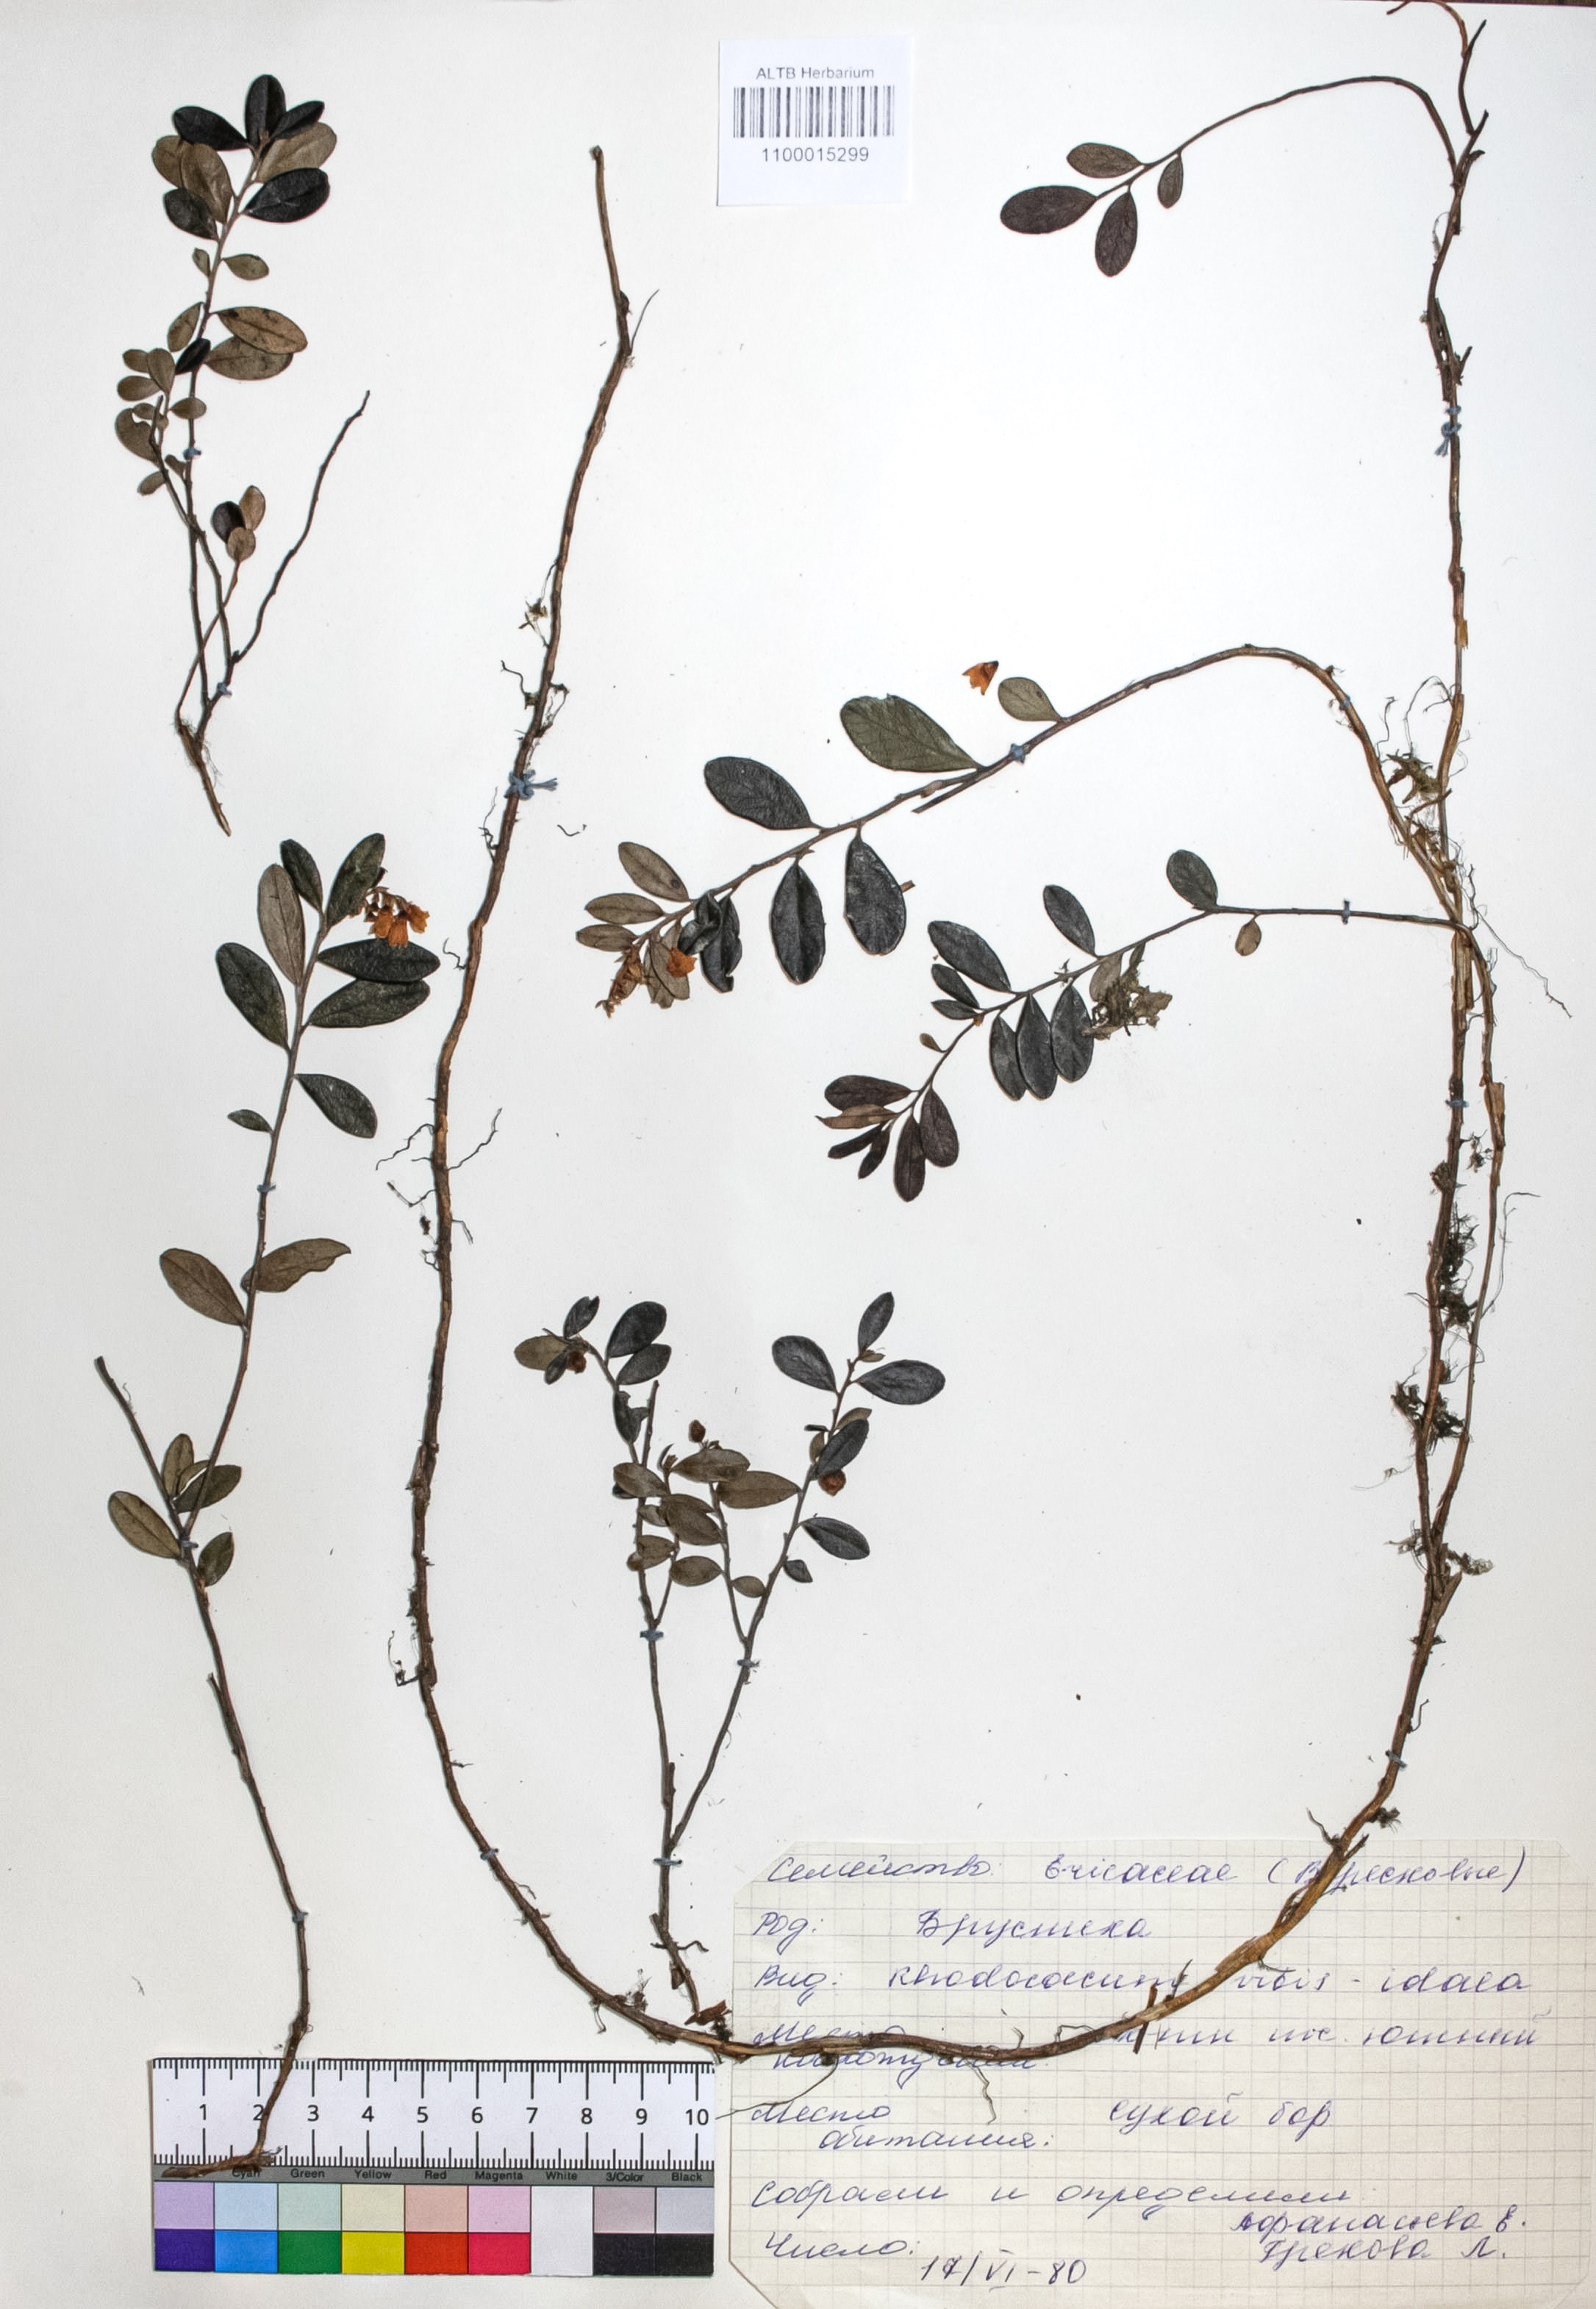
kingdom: Plantae
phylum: Tracheophyta
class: Magnoliopsida
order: Ericales
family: Ericaceae
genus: Vaccinium
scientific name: Vaccinium vitis-idaea
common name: Cowberry
